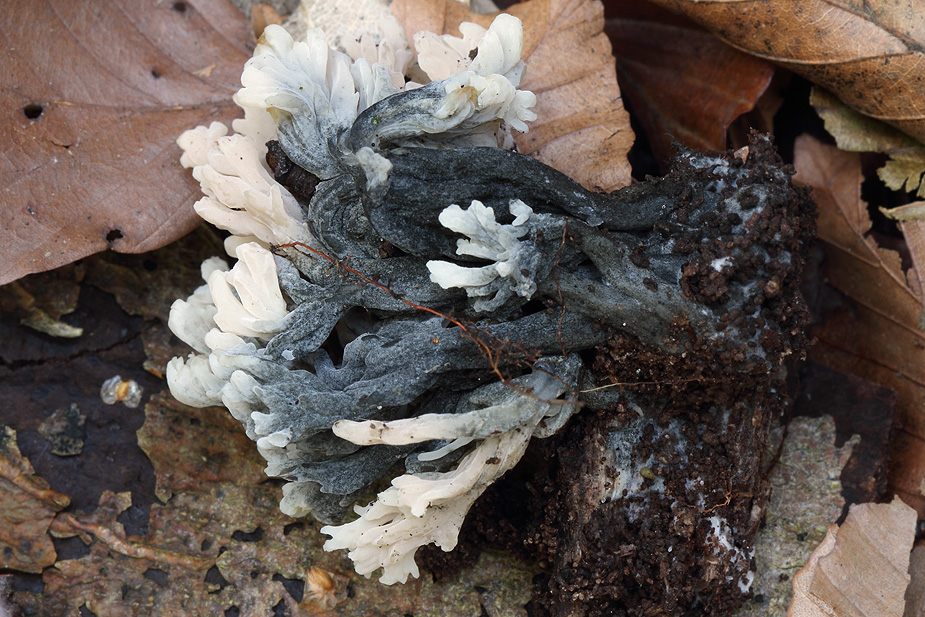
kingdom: Fungi
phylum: Ascomycota
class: Sordariomycetes
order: Sordariales
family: Helminthosphaeriaceae
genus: Helminthosphaeria
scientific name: Helminthosphaeria clavariarum
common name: trold-svampesnyltekerne
